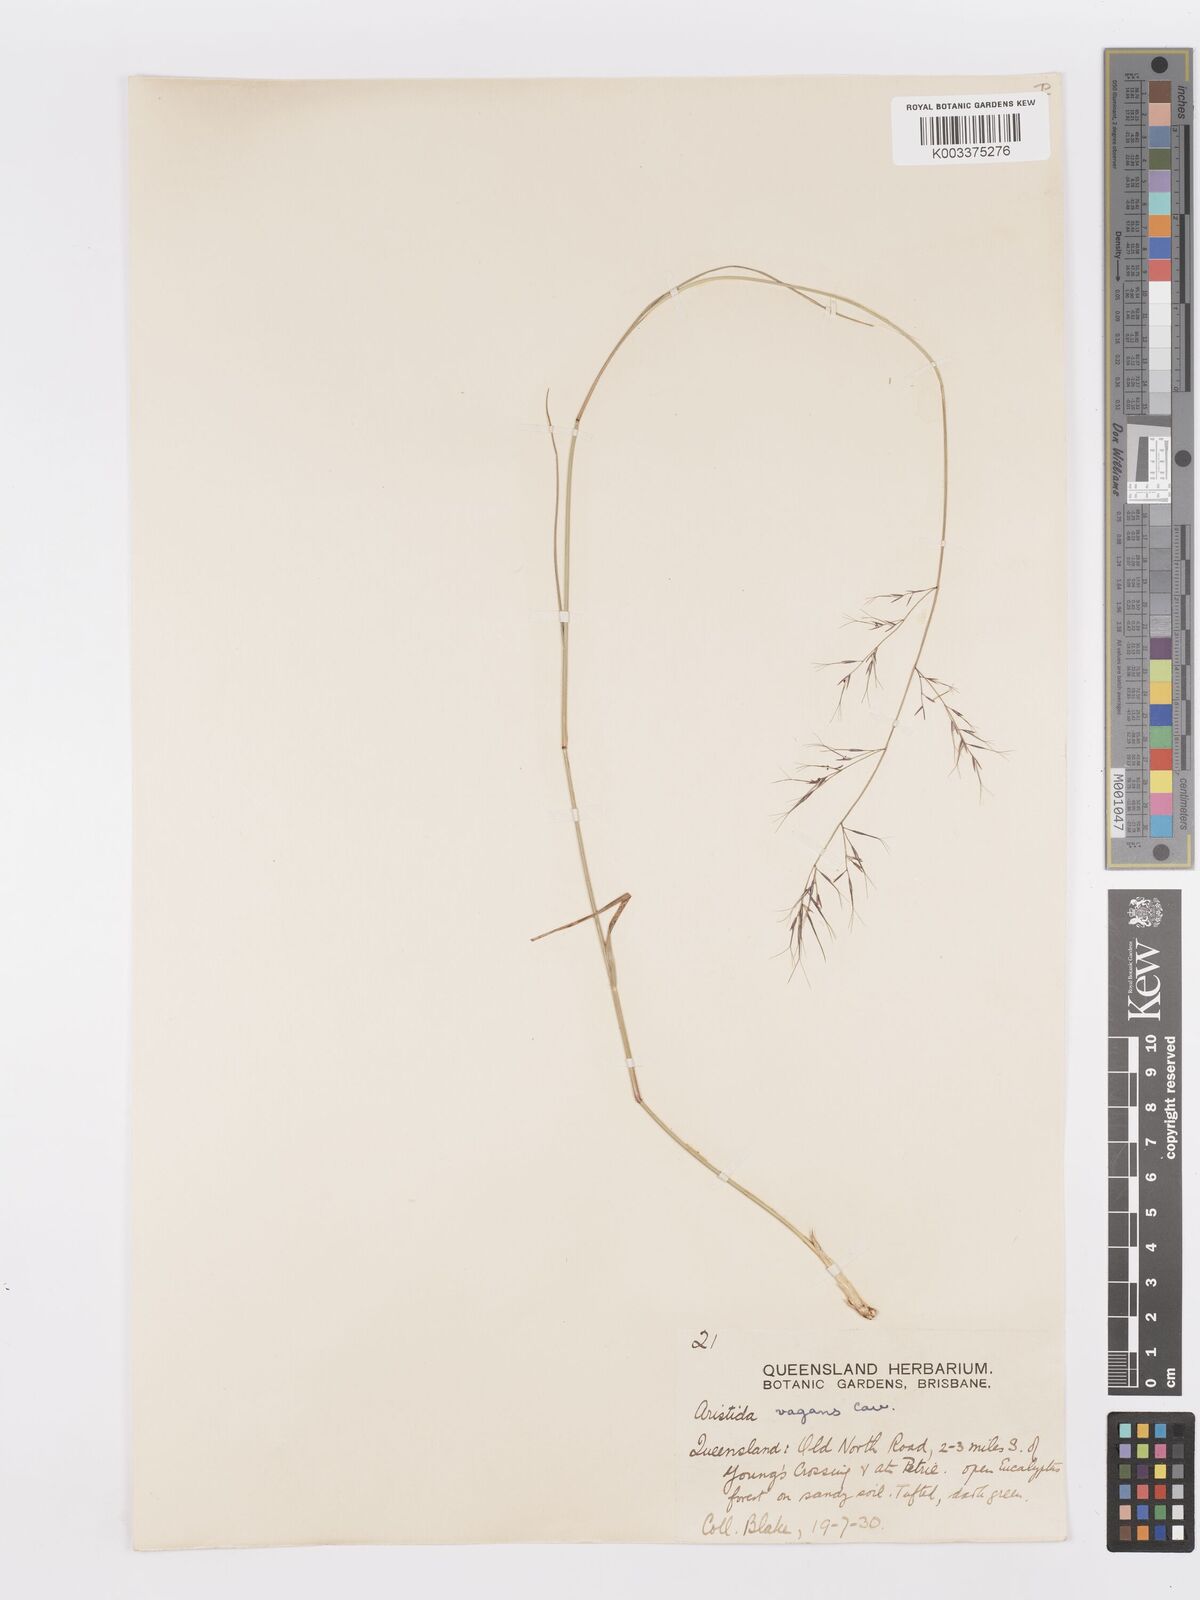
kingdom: Plantae
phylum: Tracheophyta
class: Liliopsida
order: Poales
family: Poaceae
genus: Aristida
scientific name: Aristida vagans
